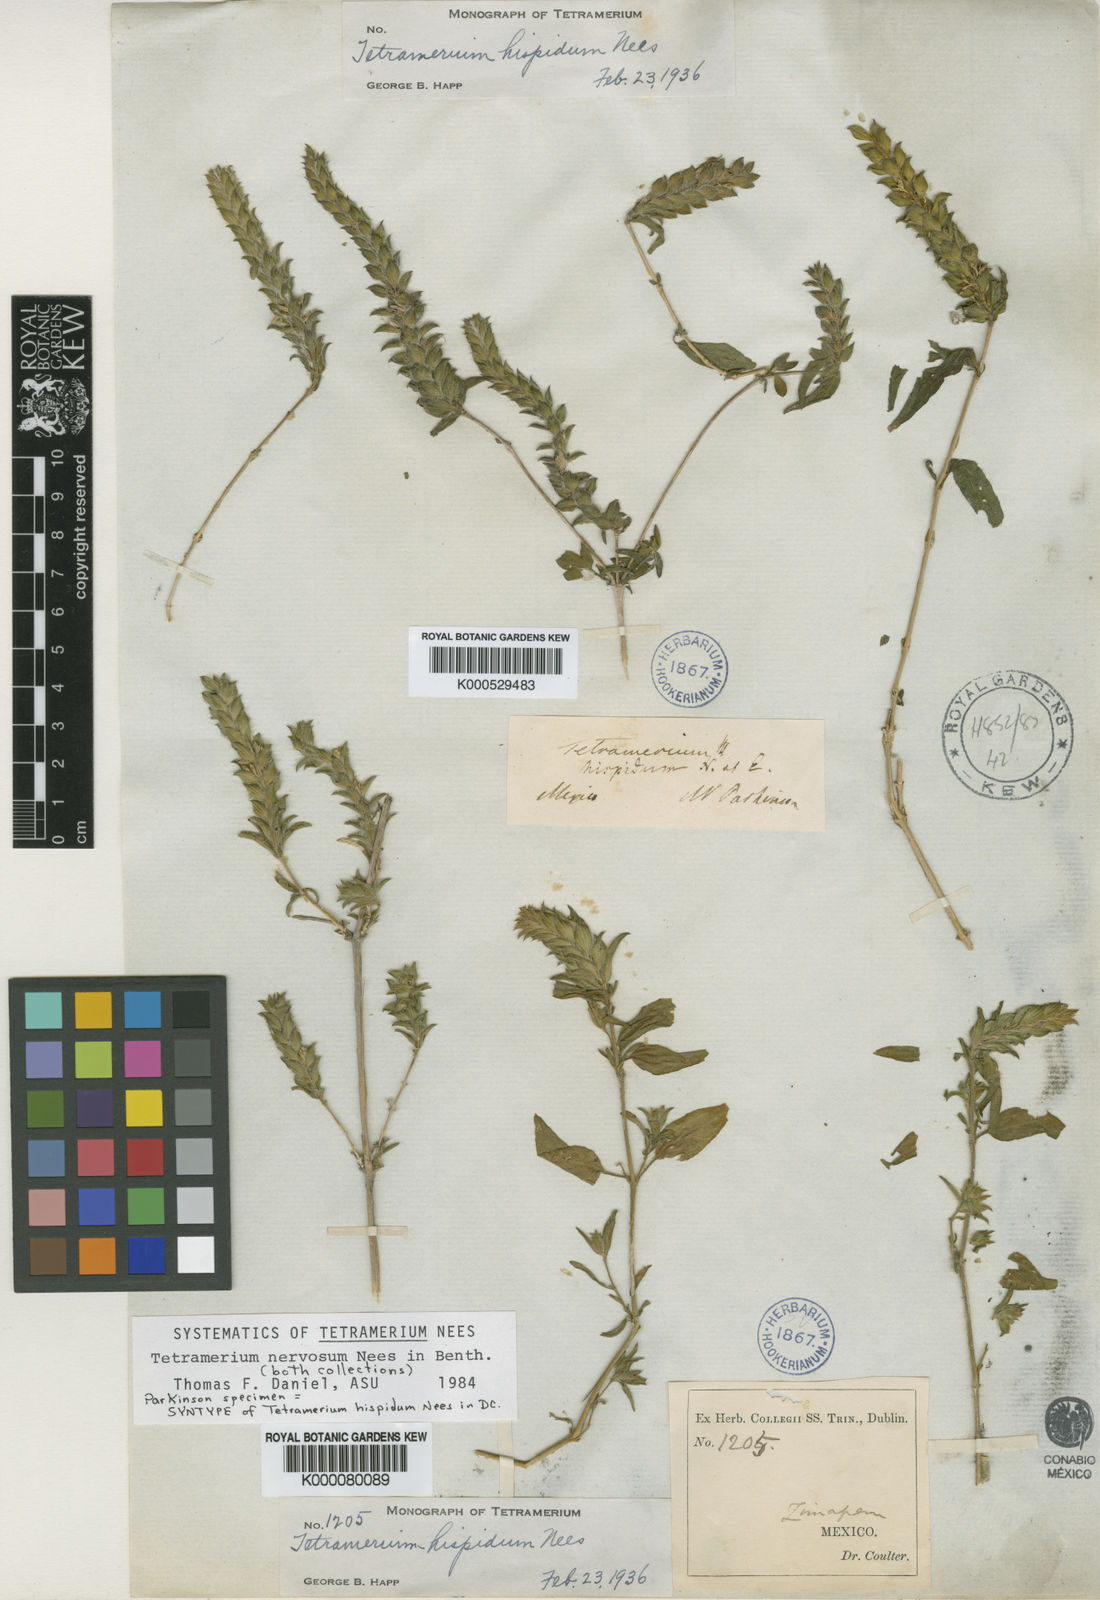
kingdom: Plantae
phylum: Tracheophyta
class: Magnoliopsida
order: Lamiales
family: Acanthaceae
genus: Tetramerium
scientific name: Tetramerium nervosum
